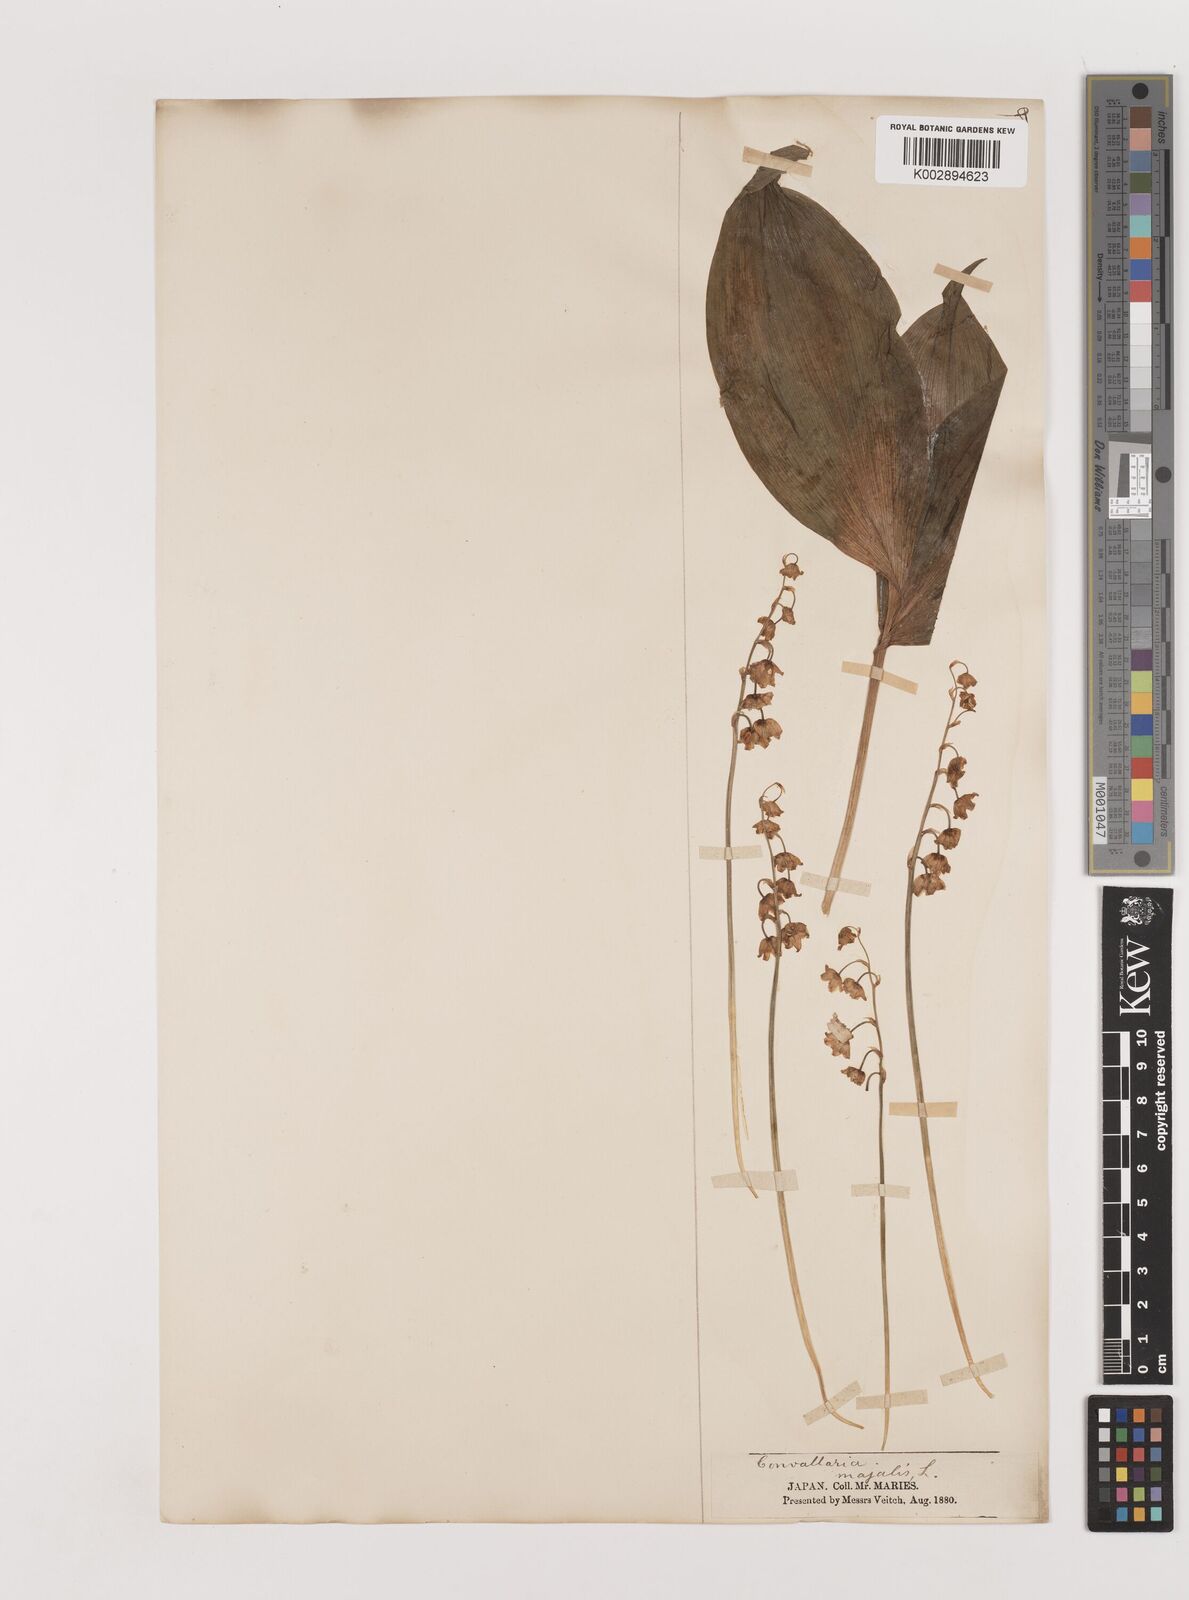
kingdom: Plantae
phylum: Tracheophyta
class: Liliopsida
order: Asparagales
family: Asparagaceae
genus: Ophiopogon
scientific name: Ophiopogon
